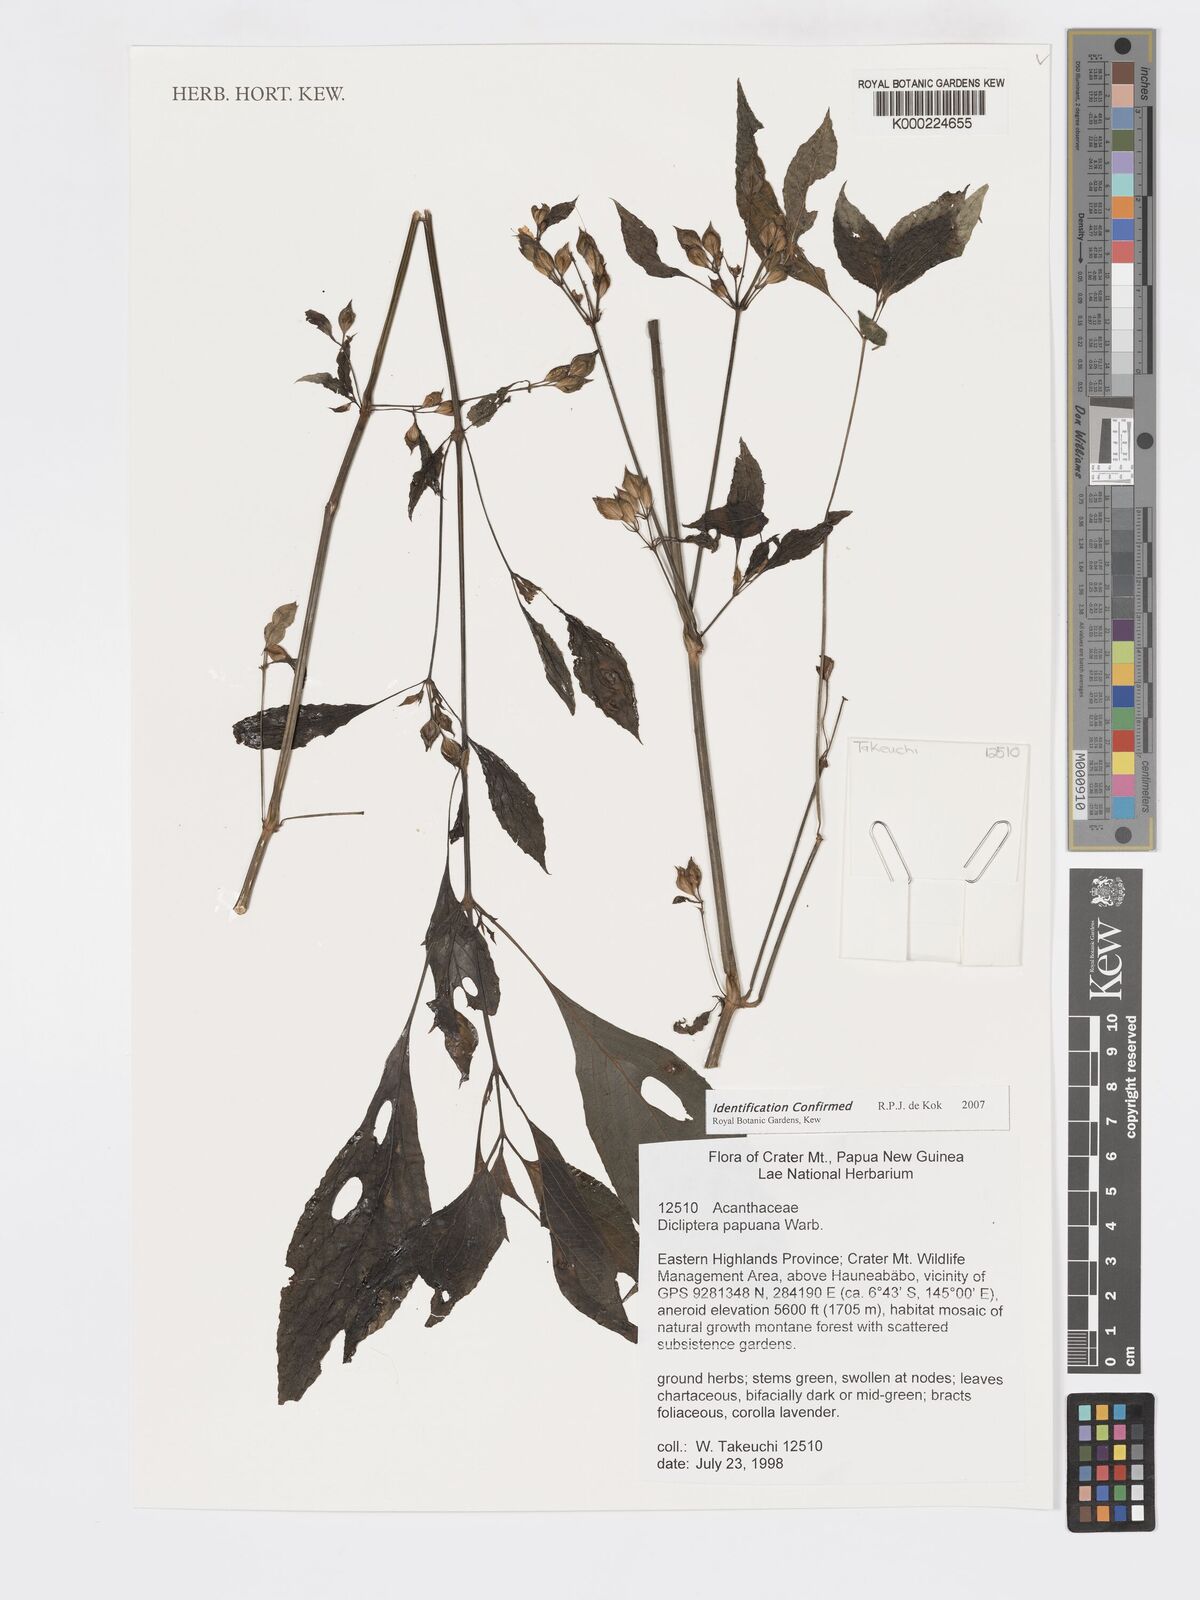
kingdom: Plantae
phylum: Tracheophyta
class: Magnoliopsida
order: Lamiales
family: Acanthaceae
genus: Dicliptera
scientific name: Dicliptera papuana
